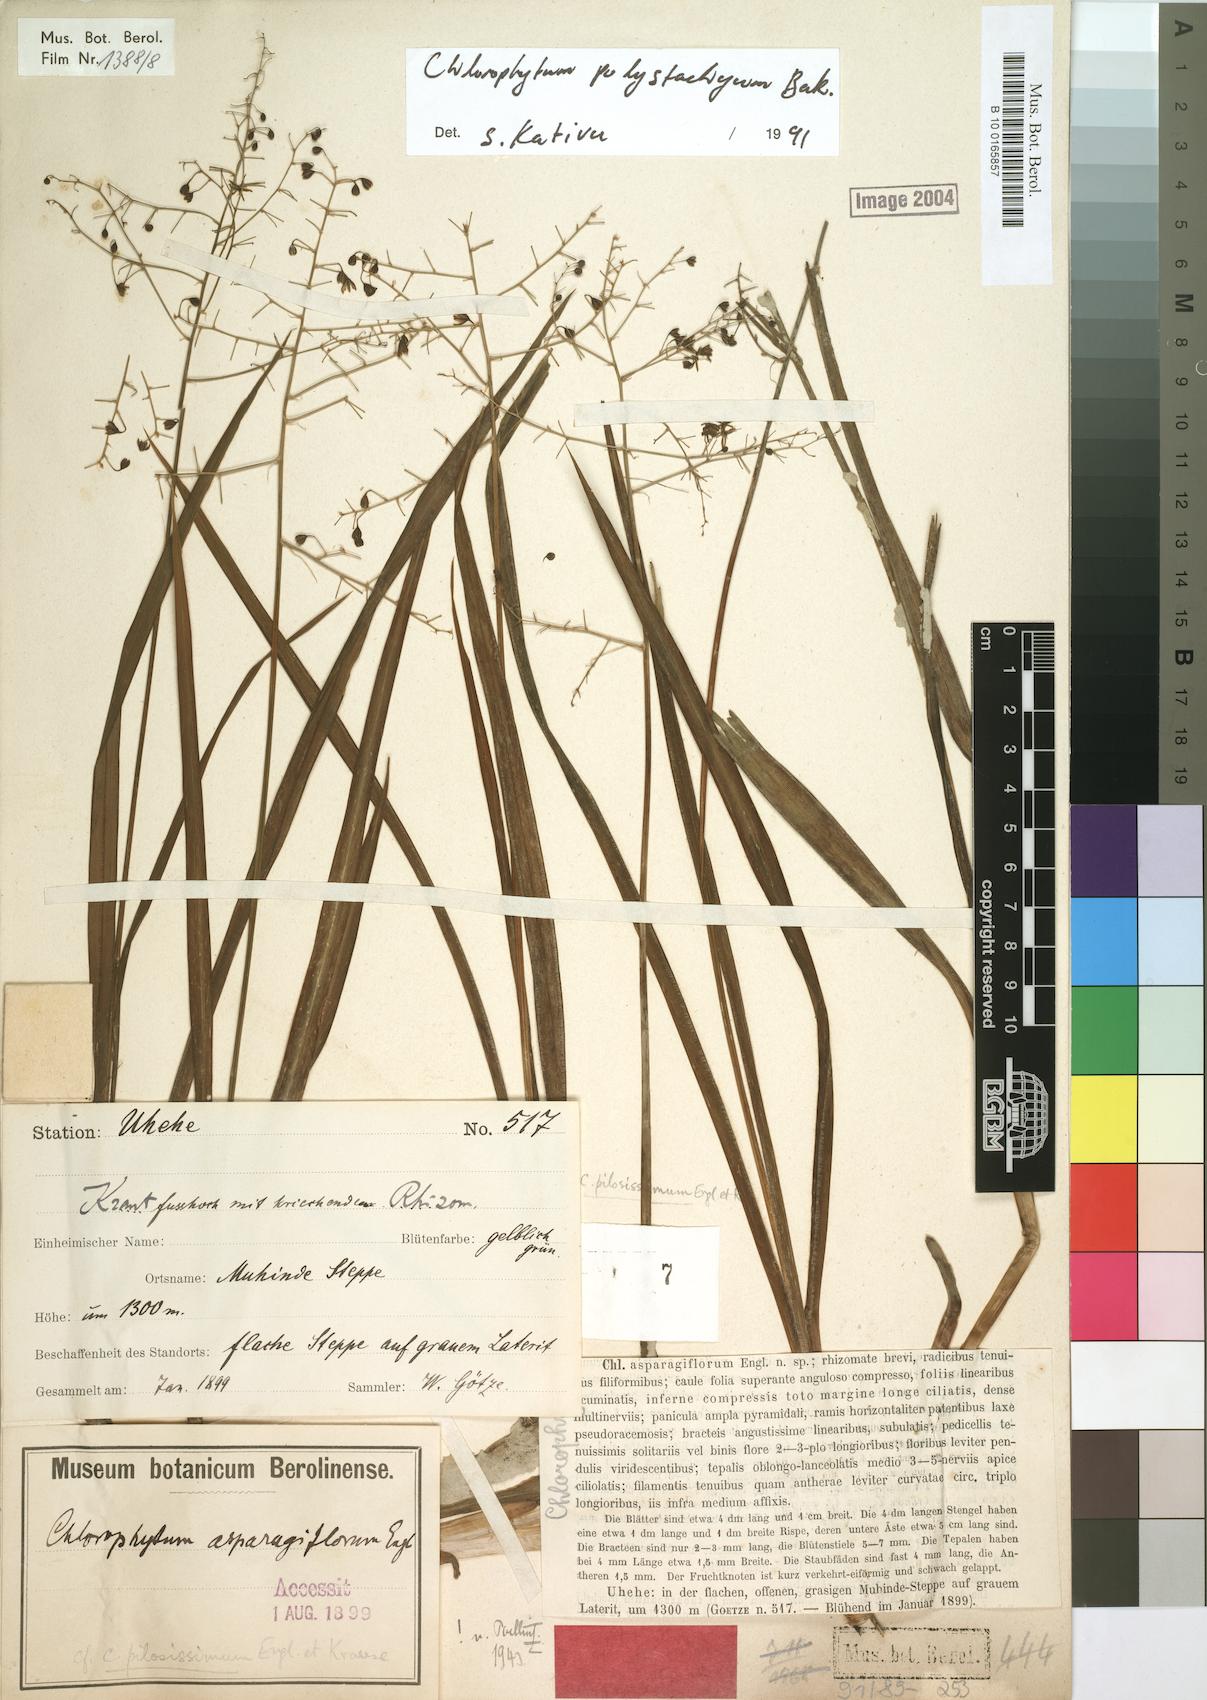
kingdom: Plantae
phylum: Tracheophyta
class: Liliopsida
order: Asparagales
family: Asparagaceae
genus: Chlorophytum
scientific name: Chlorophytum polystachys
